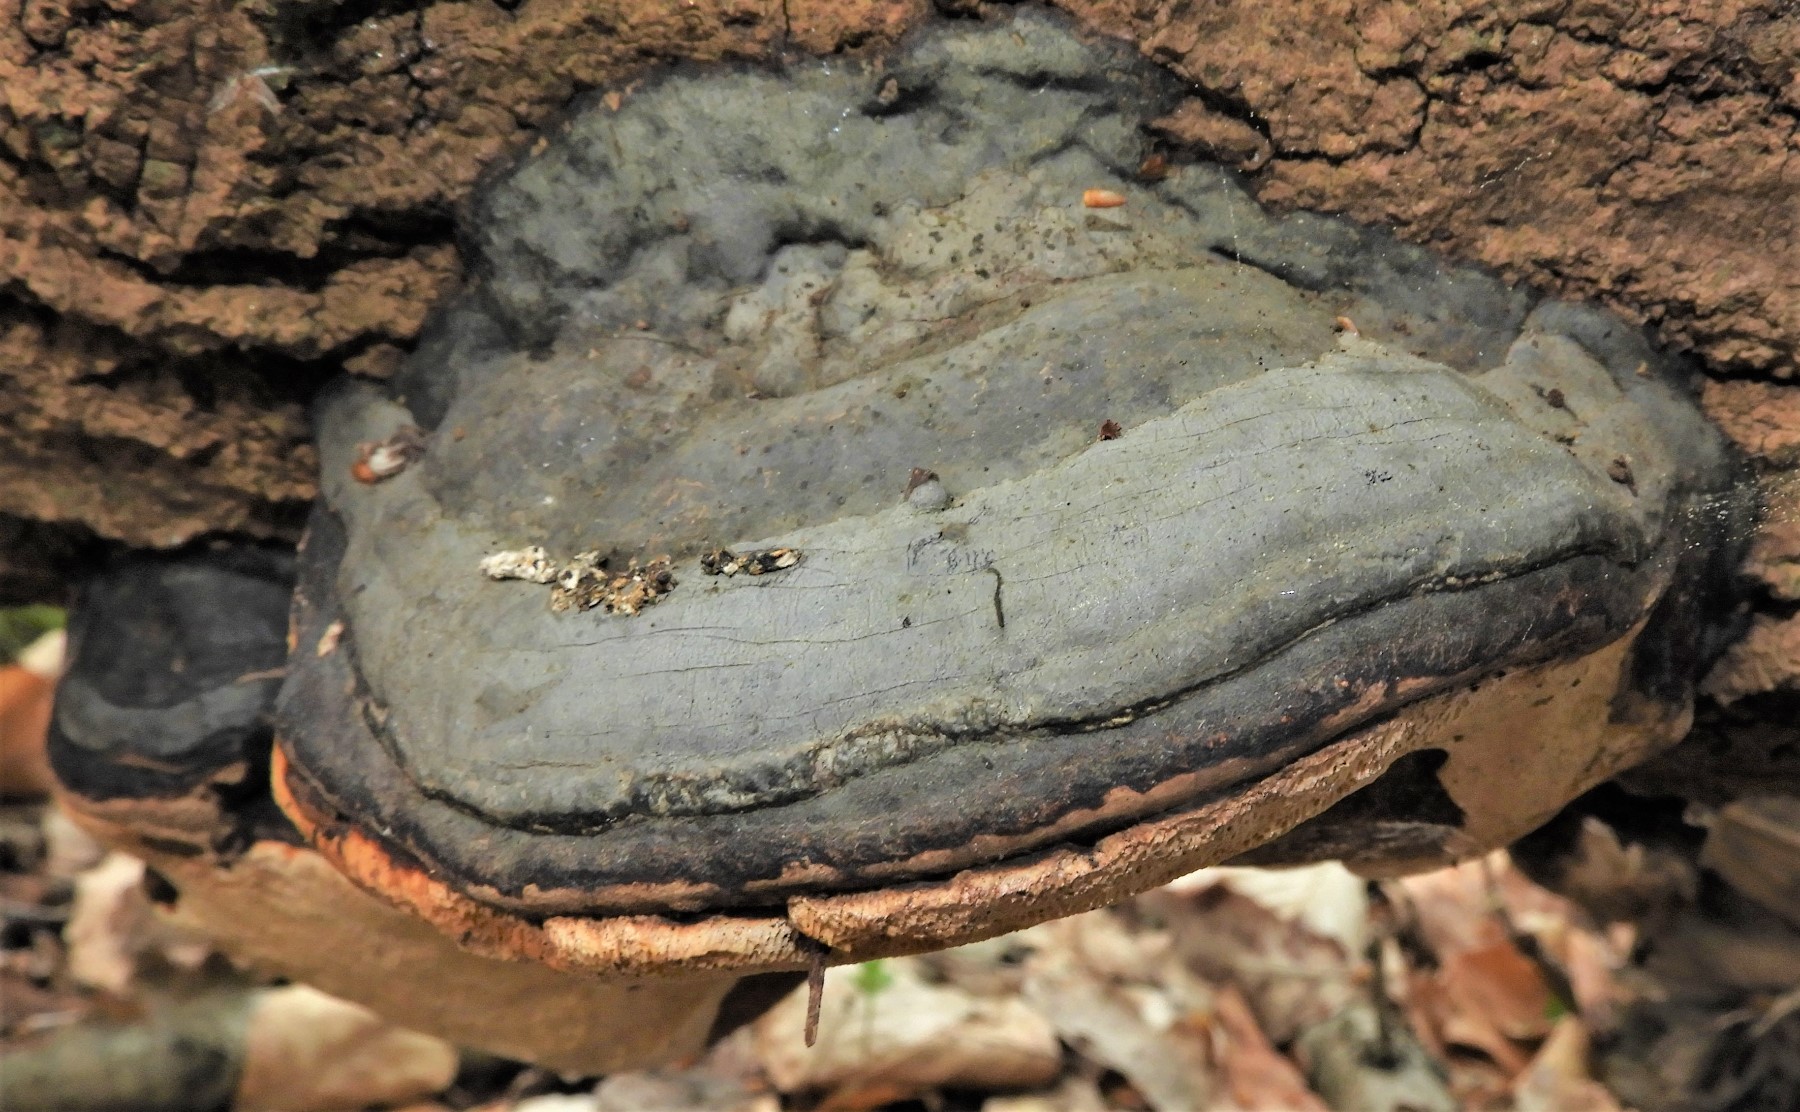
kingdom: Fungi
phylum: Basidiomycota
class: Agaricomycetes
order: Polyporales
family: Polyporaceae
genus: Fomes
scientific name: Fomes fomentarius
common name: tøndersvamp
